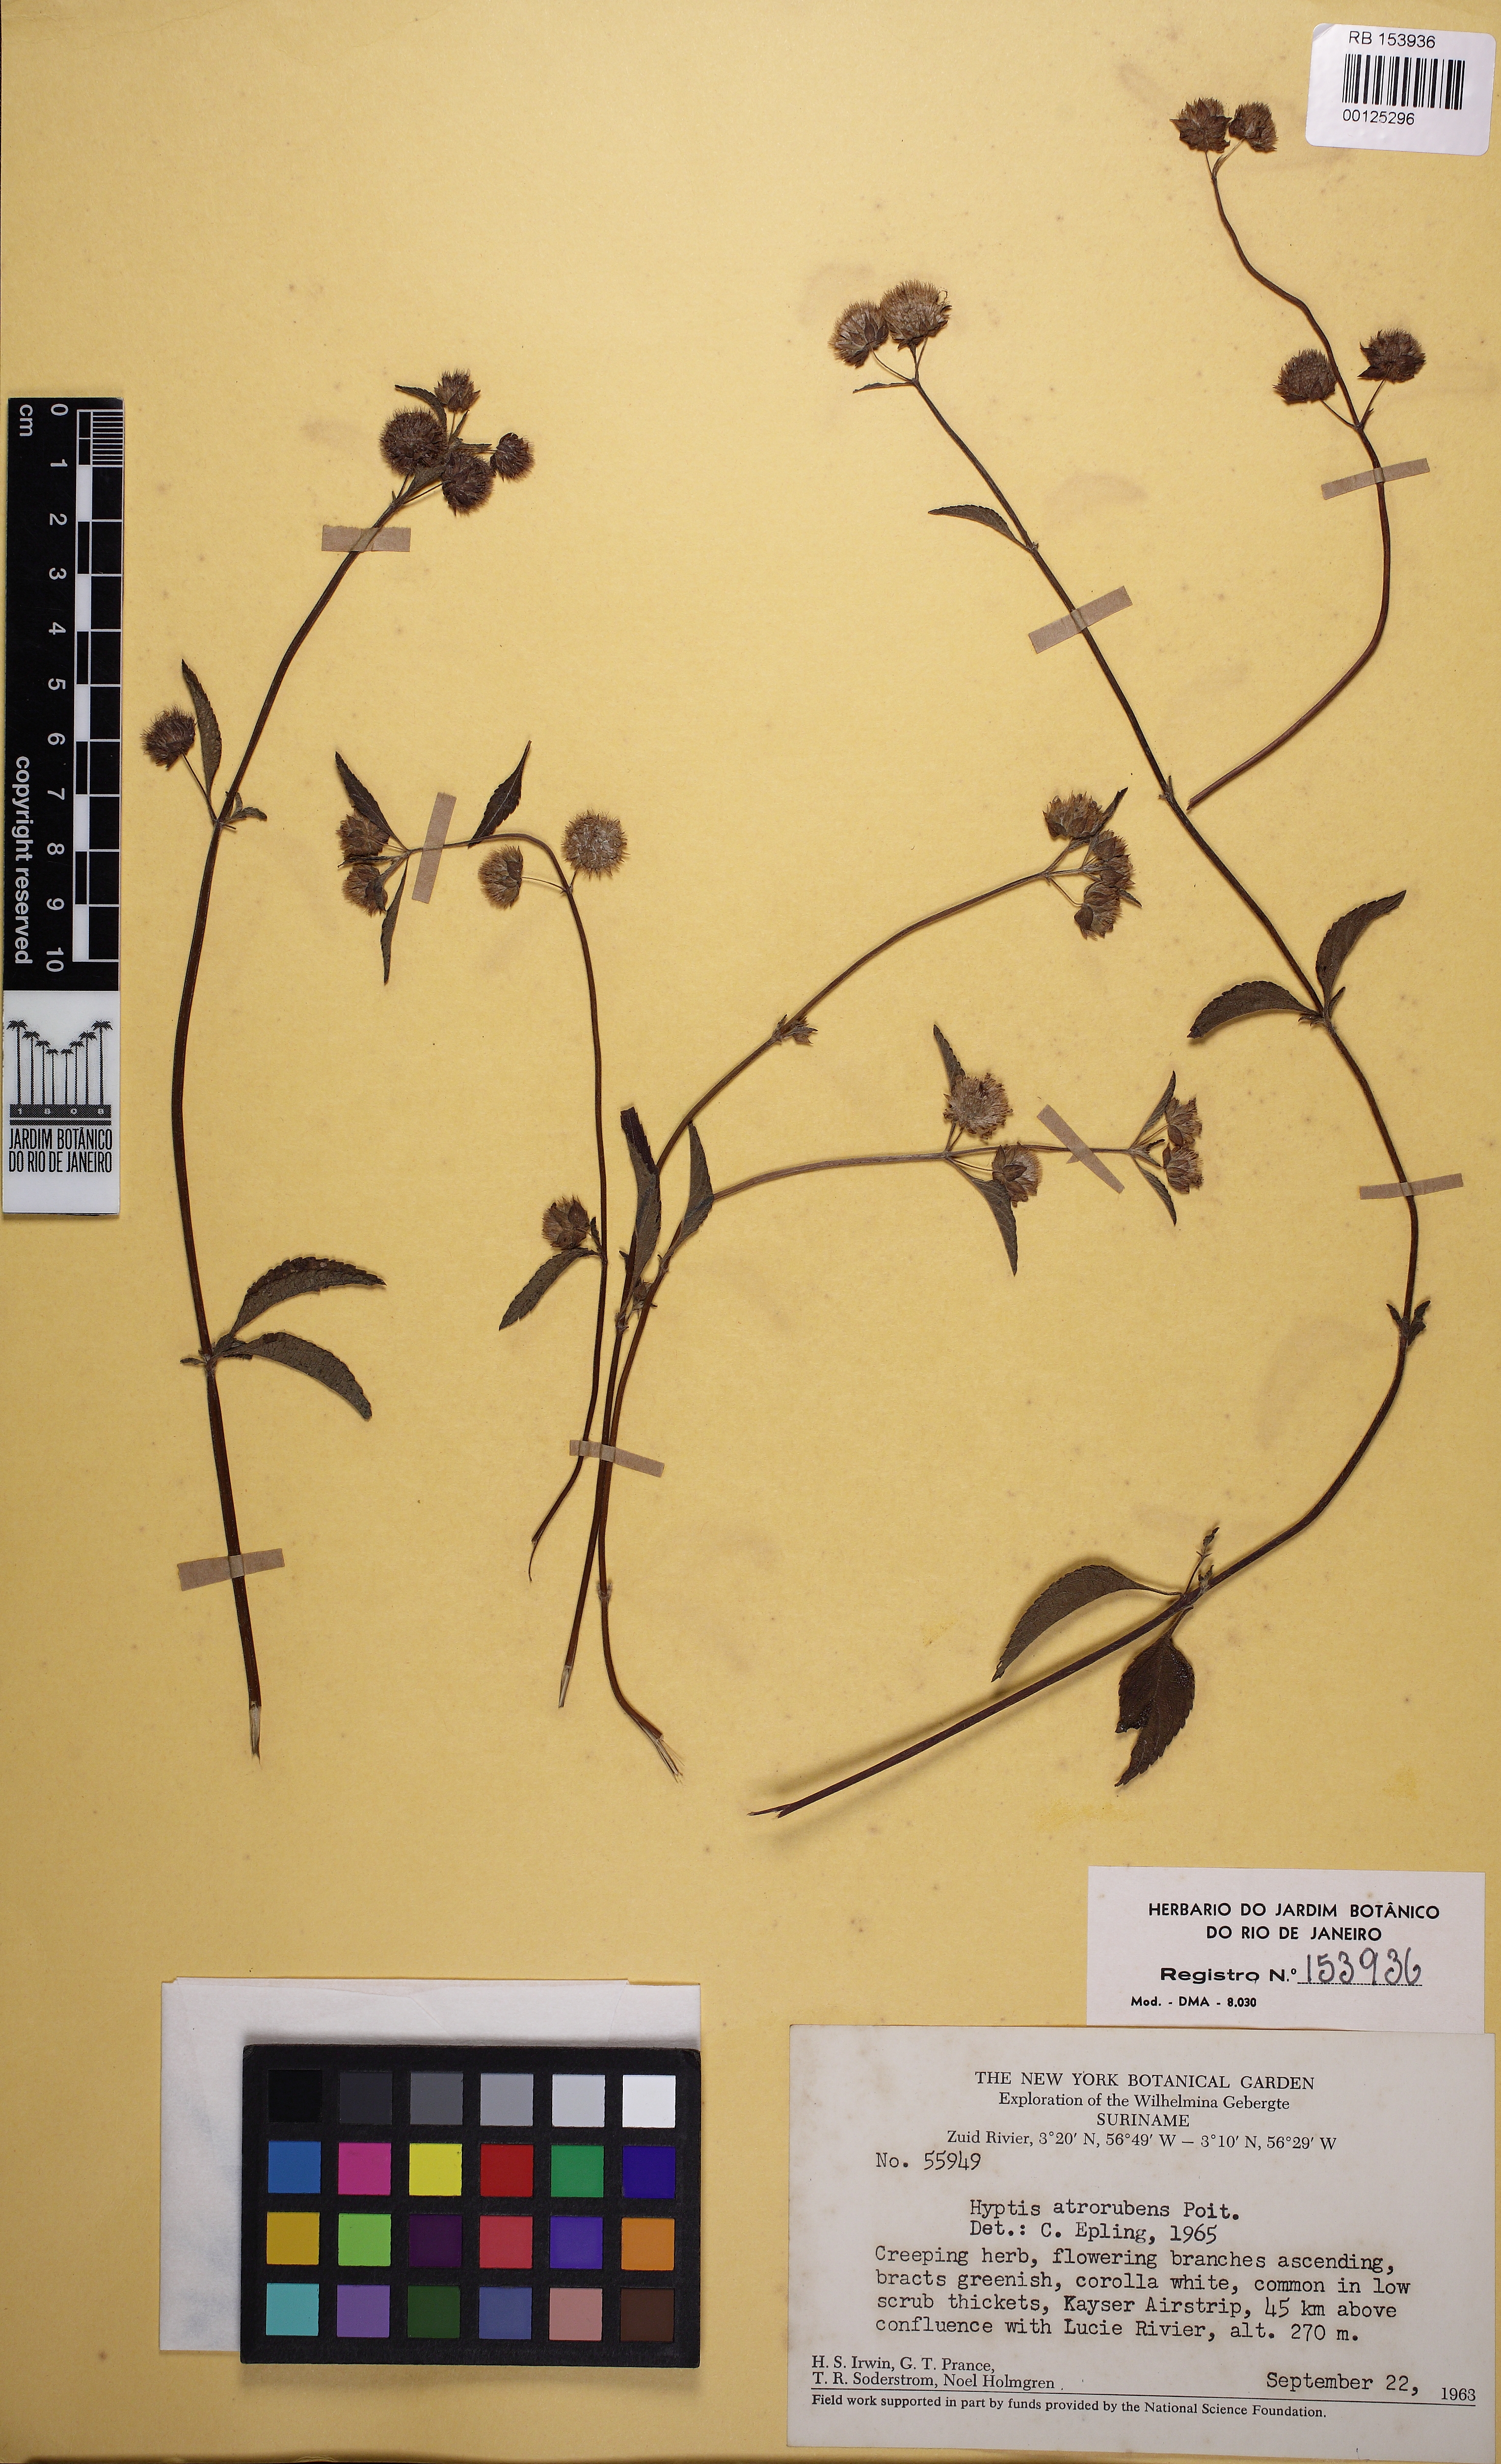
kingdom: Plantae
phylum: Tracheophyta
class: Magnoliopsida
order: Lamiales
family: Lamiaceae
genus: Hyptis
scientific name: Hyptis atrorubens
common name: Lanmant
